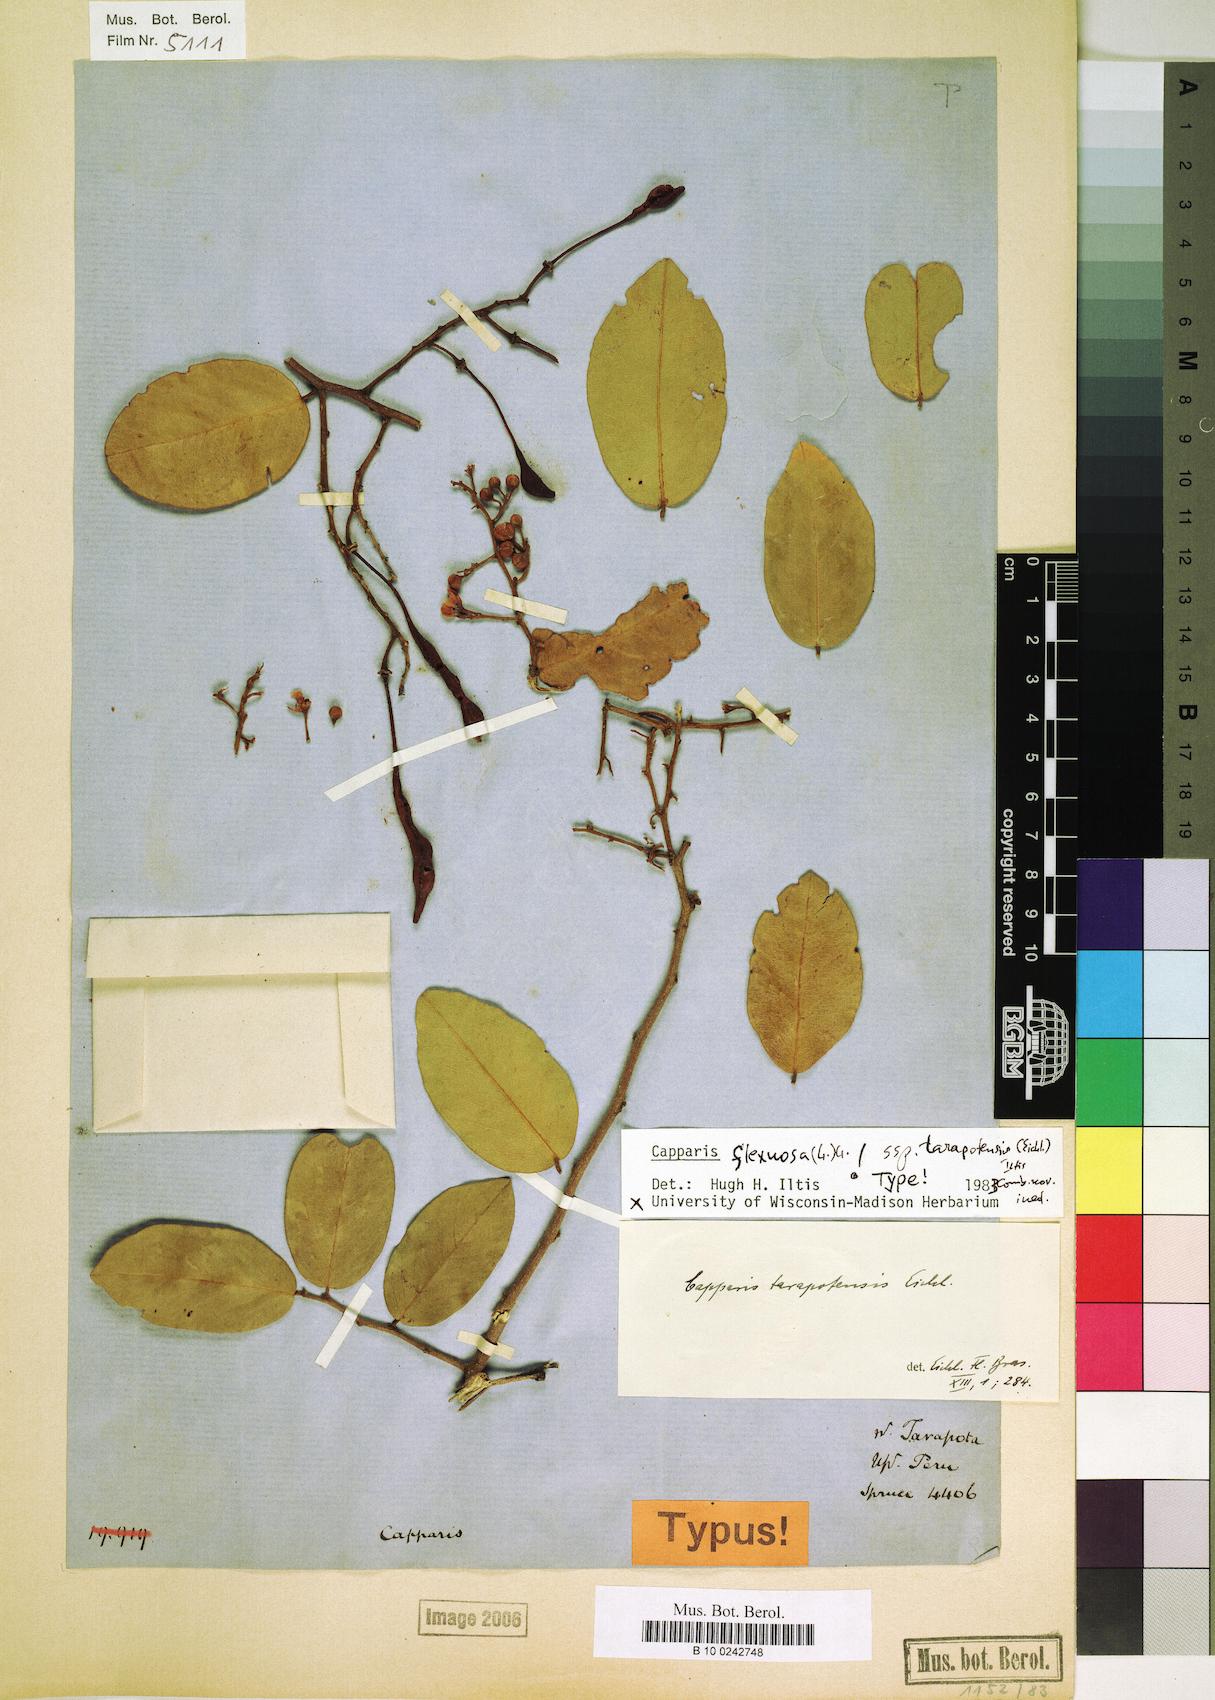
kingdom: Plantae
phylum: Tracheophyta
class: Magnoliopsida
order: Brassicales
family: Capparaceae
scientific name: Capparaceae
